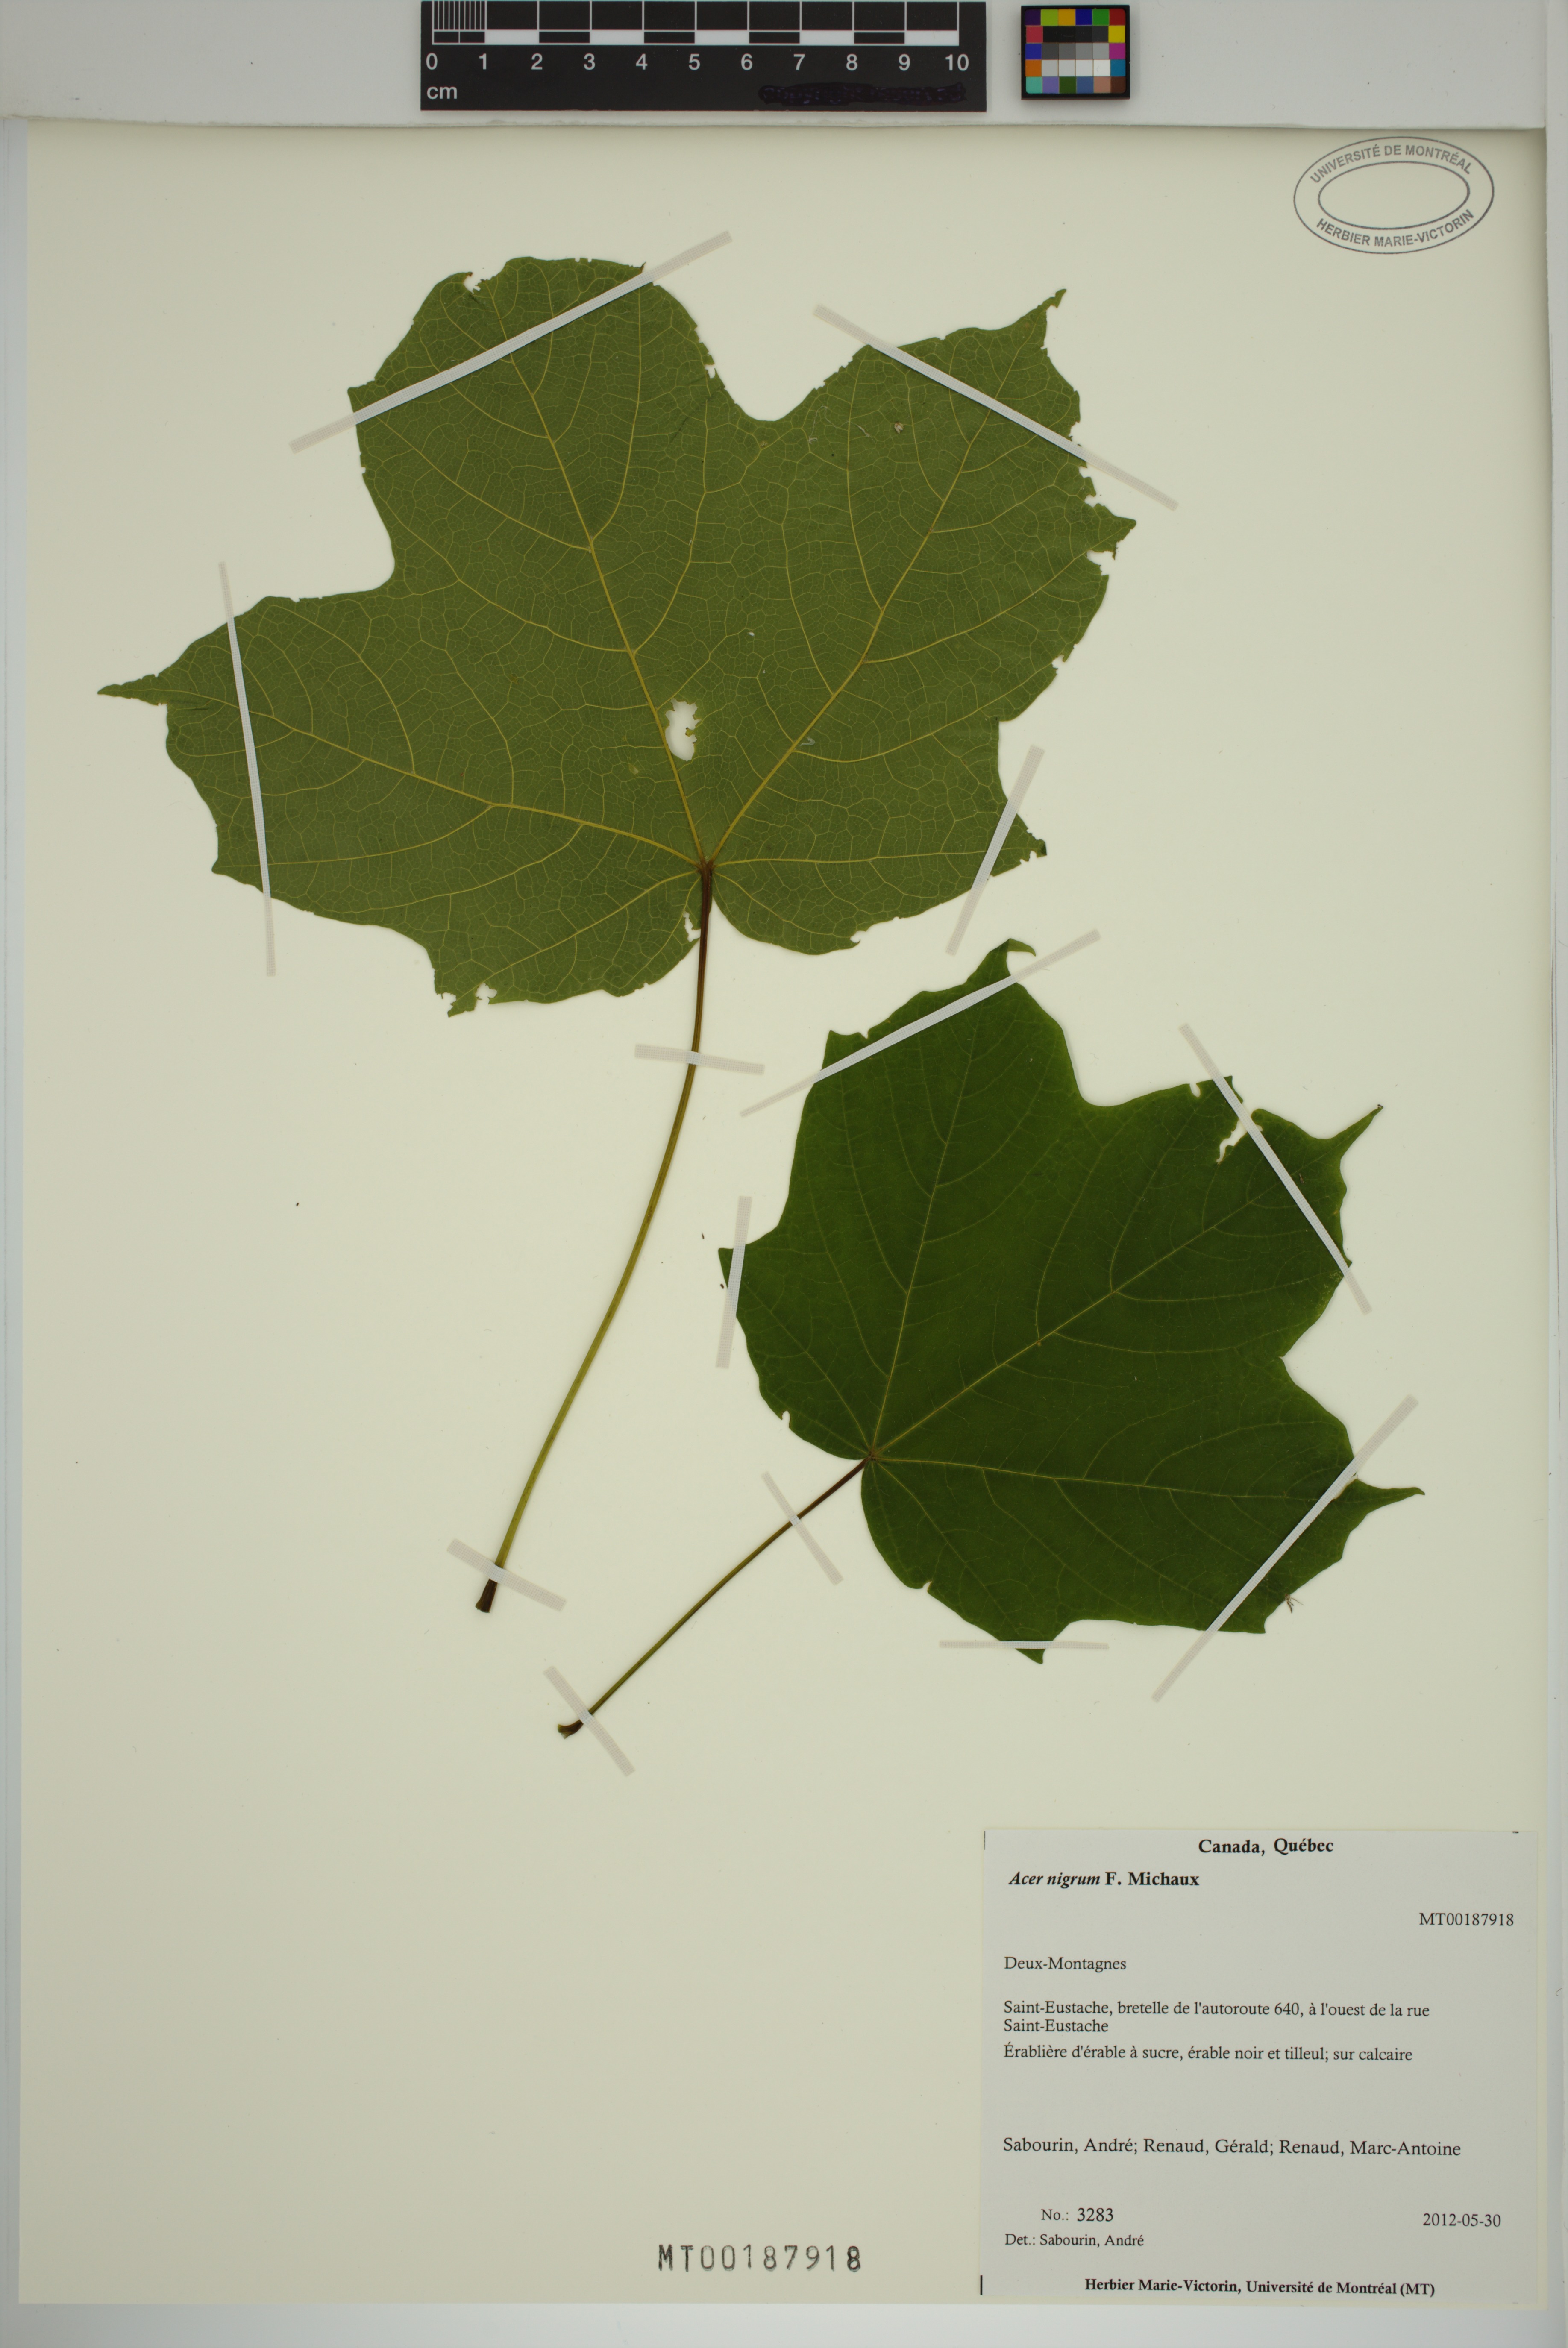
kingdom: Plantae
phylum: Tracheophyta
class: Magnoliopsida
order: Sapindales
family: Sapindaceae
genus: Acer
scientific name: Acer nigrum
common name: Black maple
